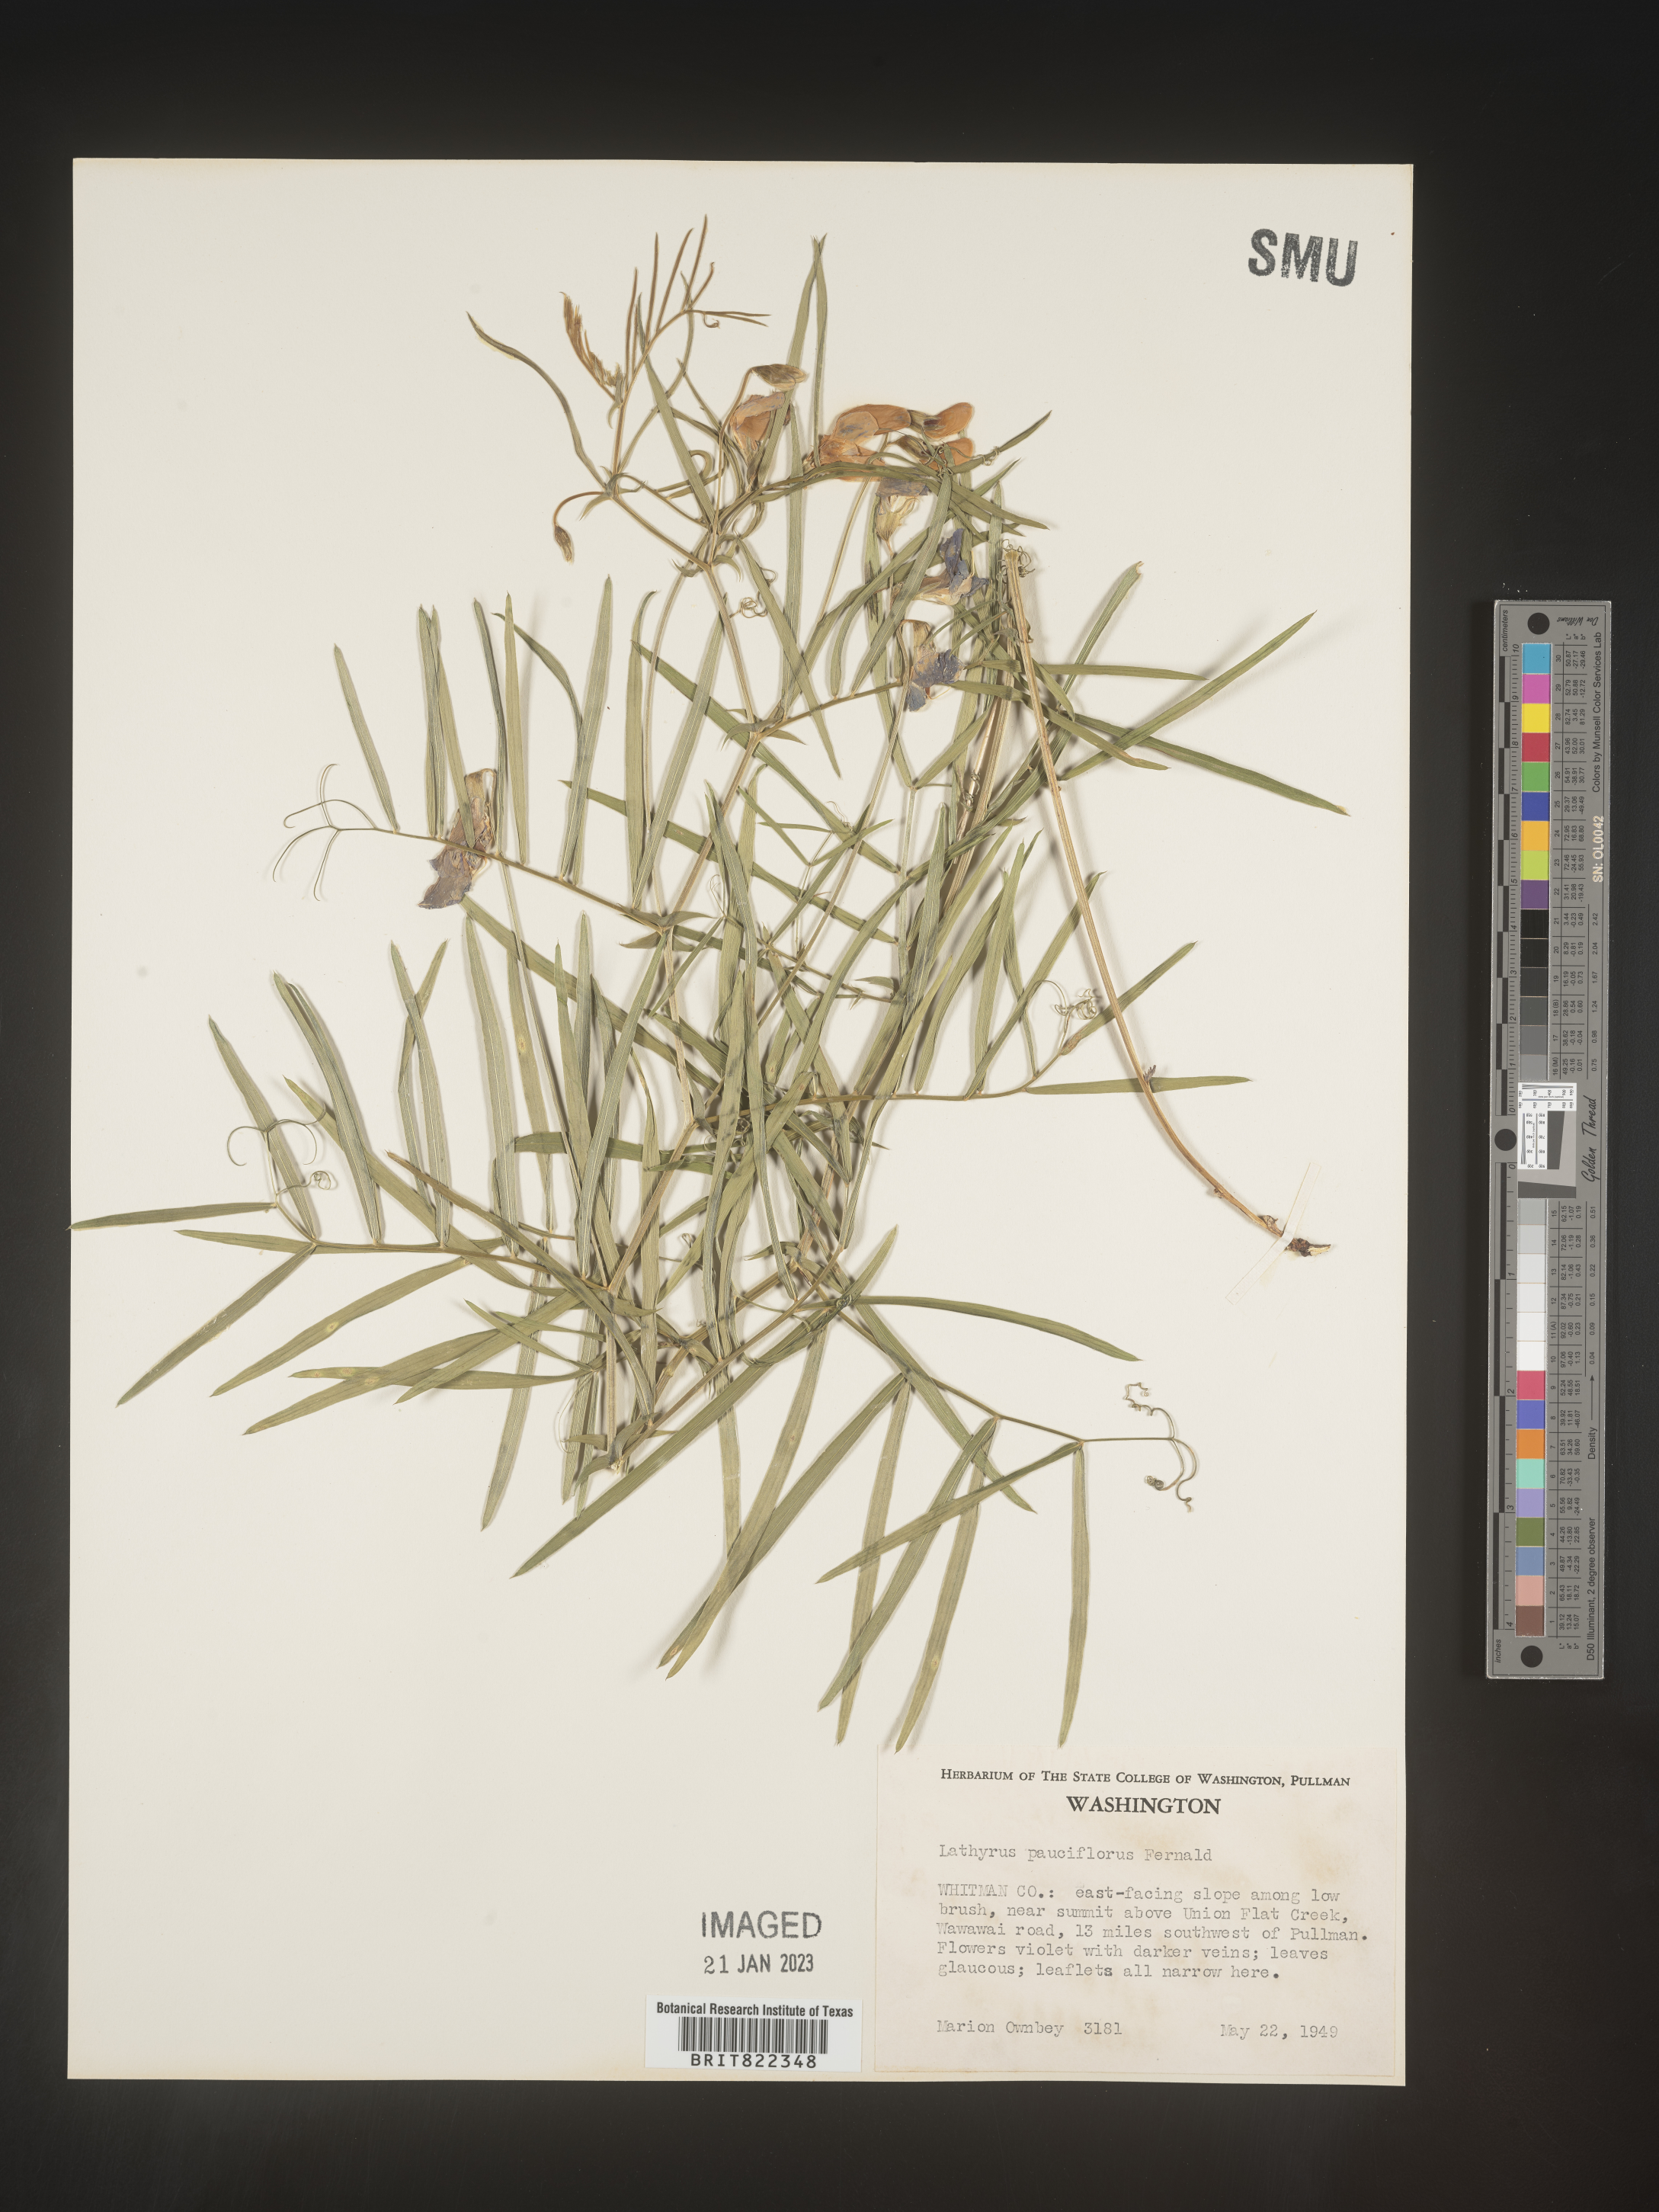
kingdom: Plantae
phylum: Tracheophyta
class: Magnoliopsida
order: Fabales
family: Fabaceae
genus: Lathyrus
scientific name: Lathyrus pauciflorus
